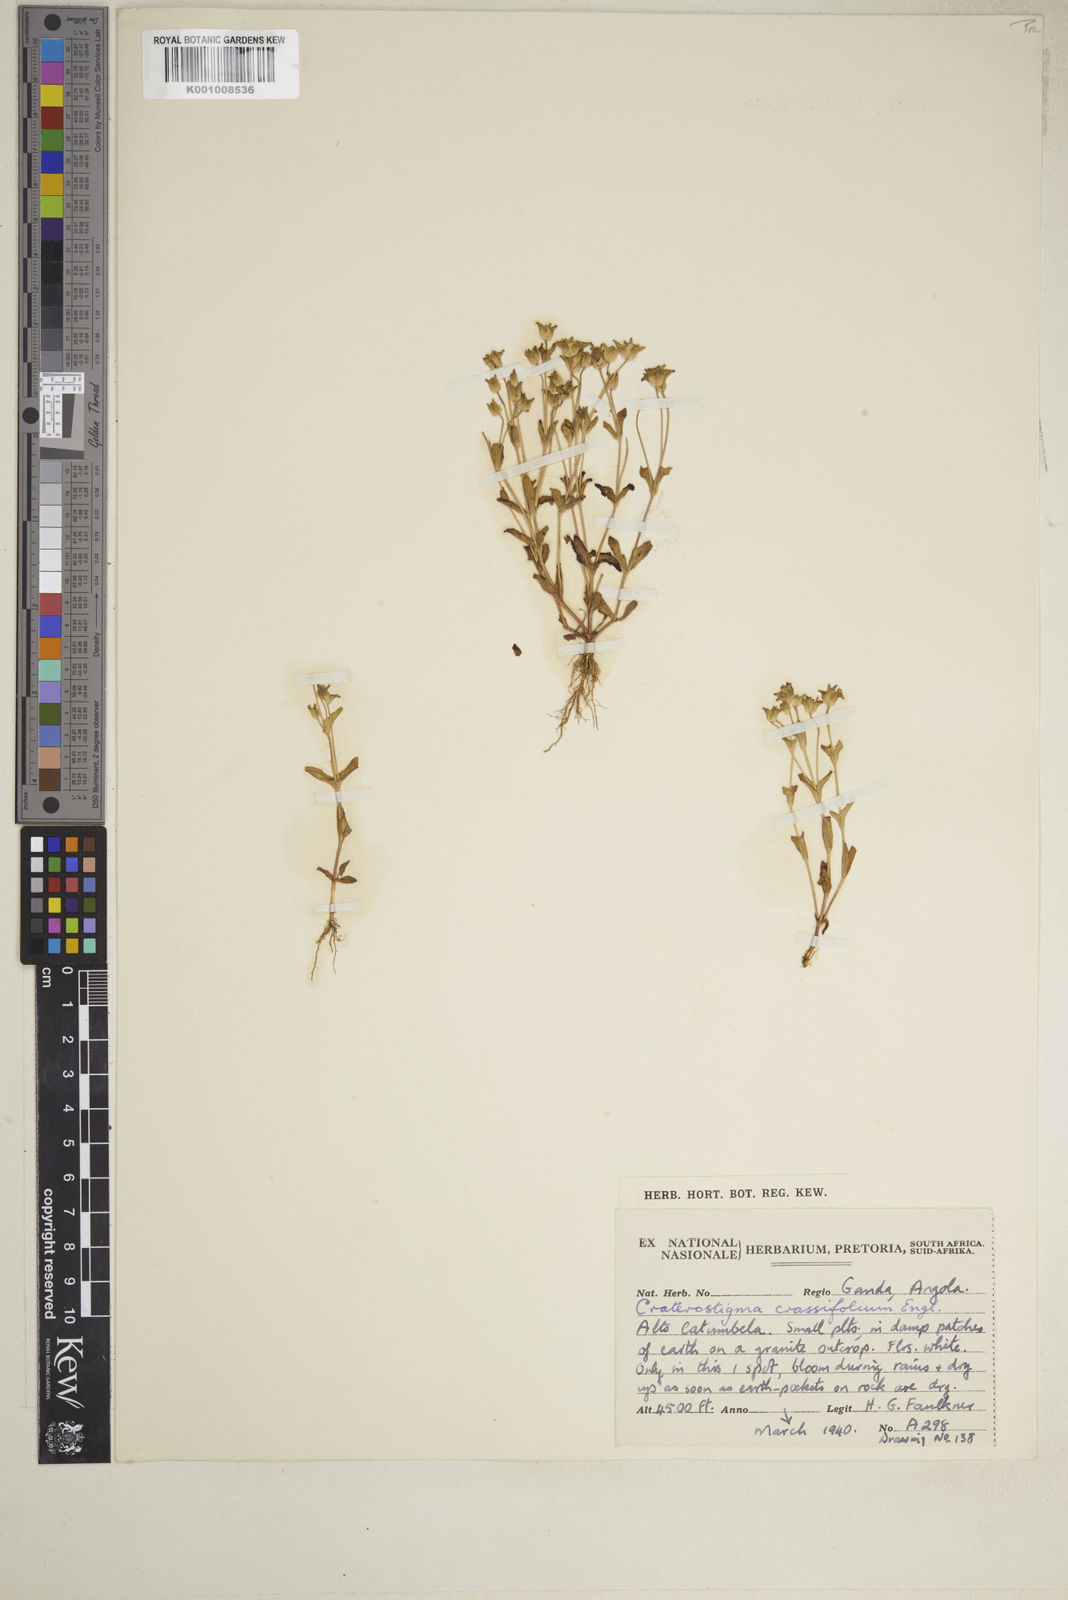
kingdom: Plantae
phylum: Tracheophyta
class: Magnoliopsida
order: Lamiales
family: Linderniaceae
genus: Lindernia
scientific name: Lindernia crassifolia
